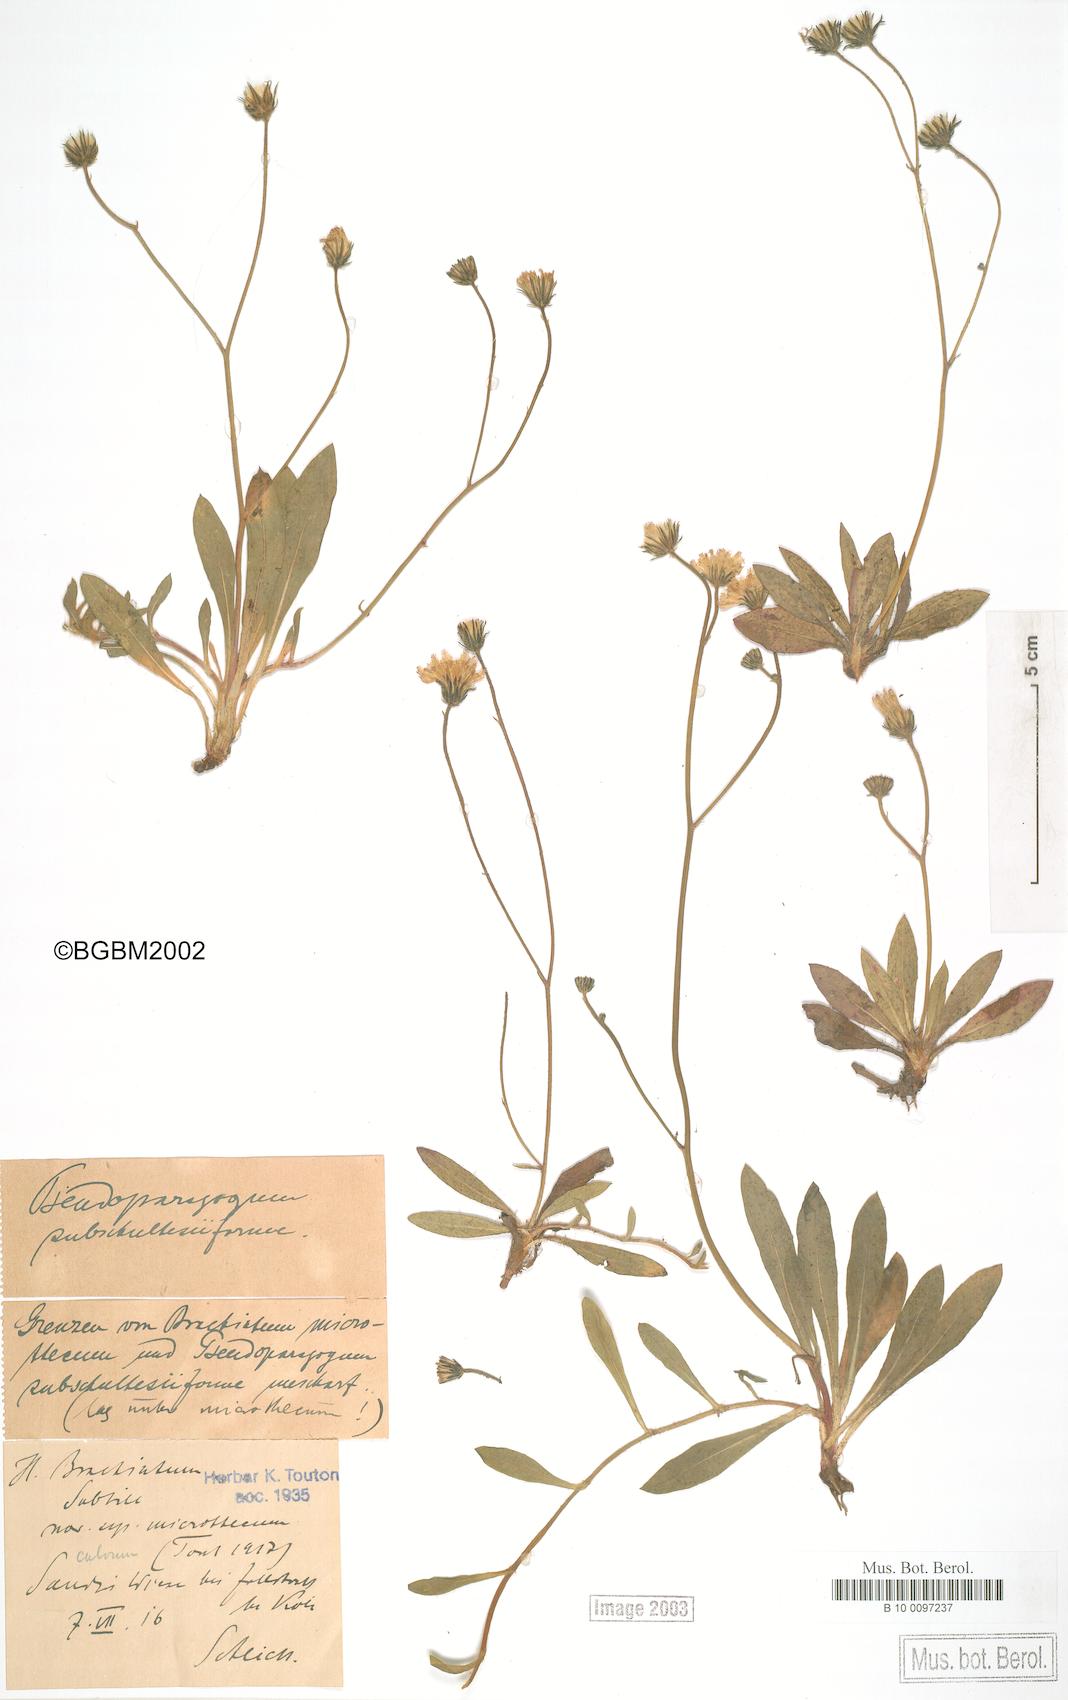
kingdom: Plantae
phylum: Tracheophyta
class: Magnoliopsida
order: Asterales
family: Asteraceae
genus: Hieracum
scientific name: Hieracum
